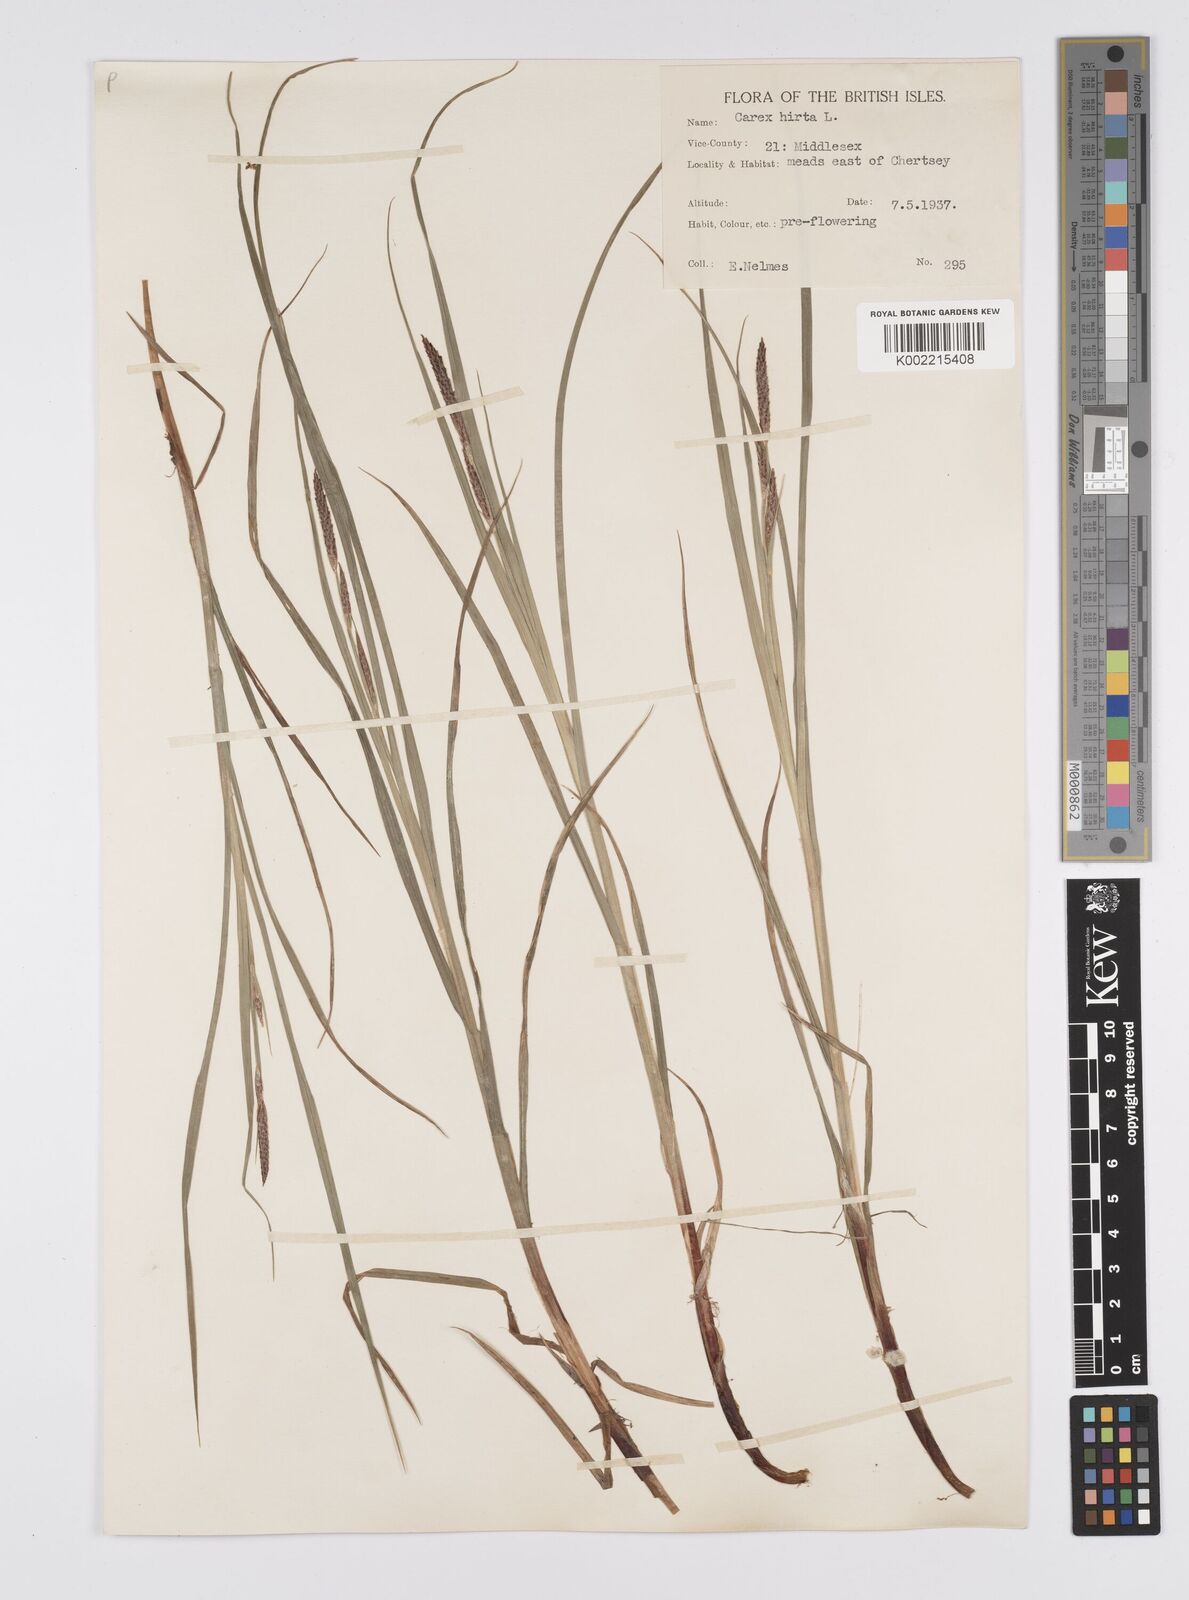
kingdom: Plantae
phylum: Tracheophyta
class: Liliopsida
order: Poales
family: Cyperaceae
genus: Carex
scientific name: Carex hirta
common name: Hairy sedge
